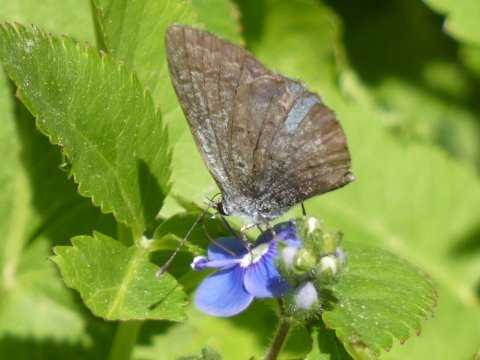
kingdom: Animalia
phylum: Arthropoda
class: Insecta
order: Lepidoptera
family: Lycaenidae
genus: Celastrina
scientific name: Celastrina ladon
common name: Spring Azure
